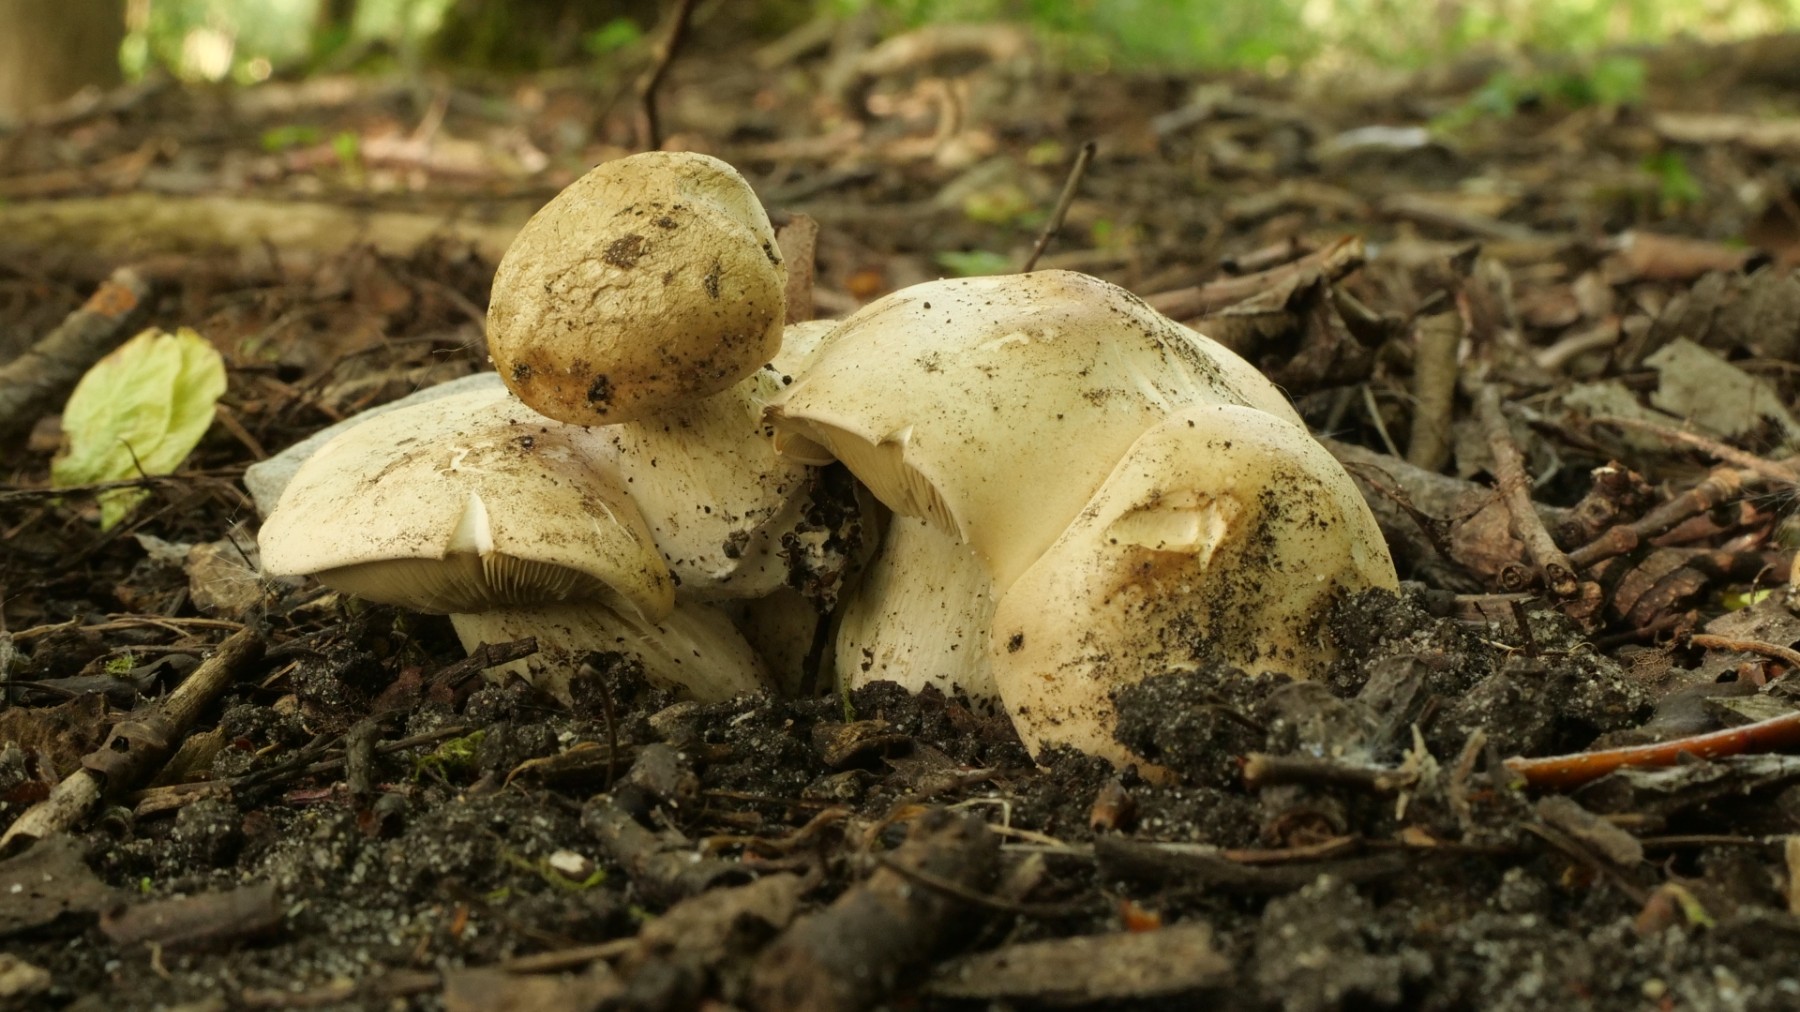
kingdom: Fungi
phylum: Basidiomycota
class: Agaricomycetes
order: Agaricales
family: Lyophyllaceae
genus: Calocybe
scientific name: Calocybe gambosa
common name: vårmusseron
